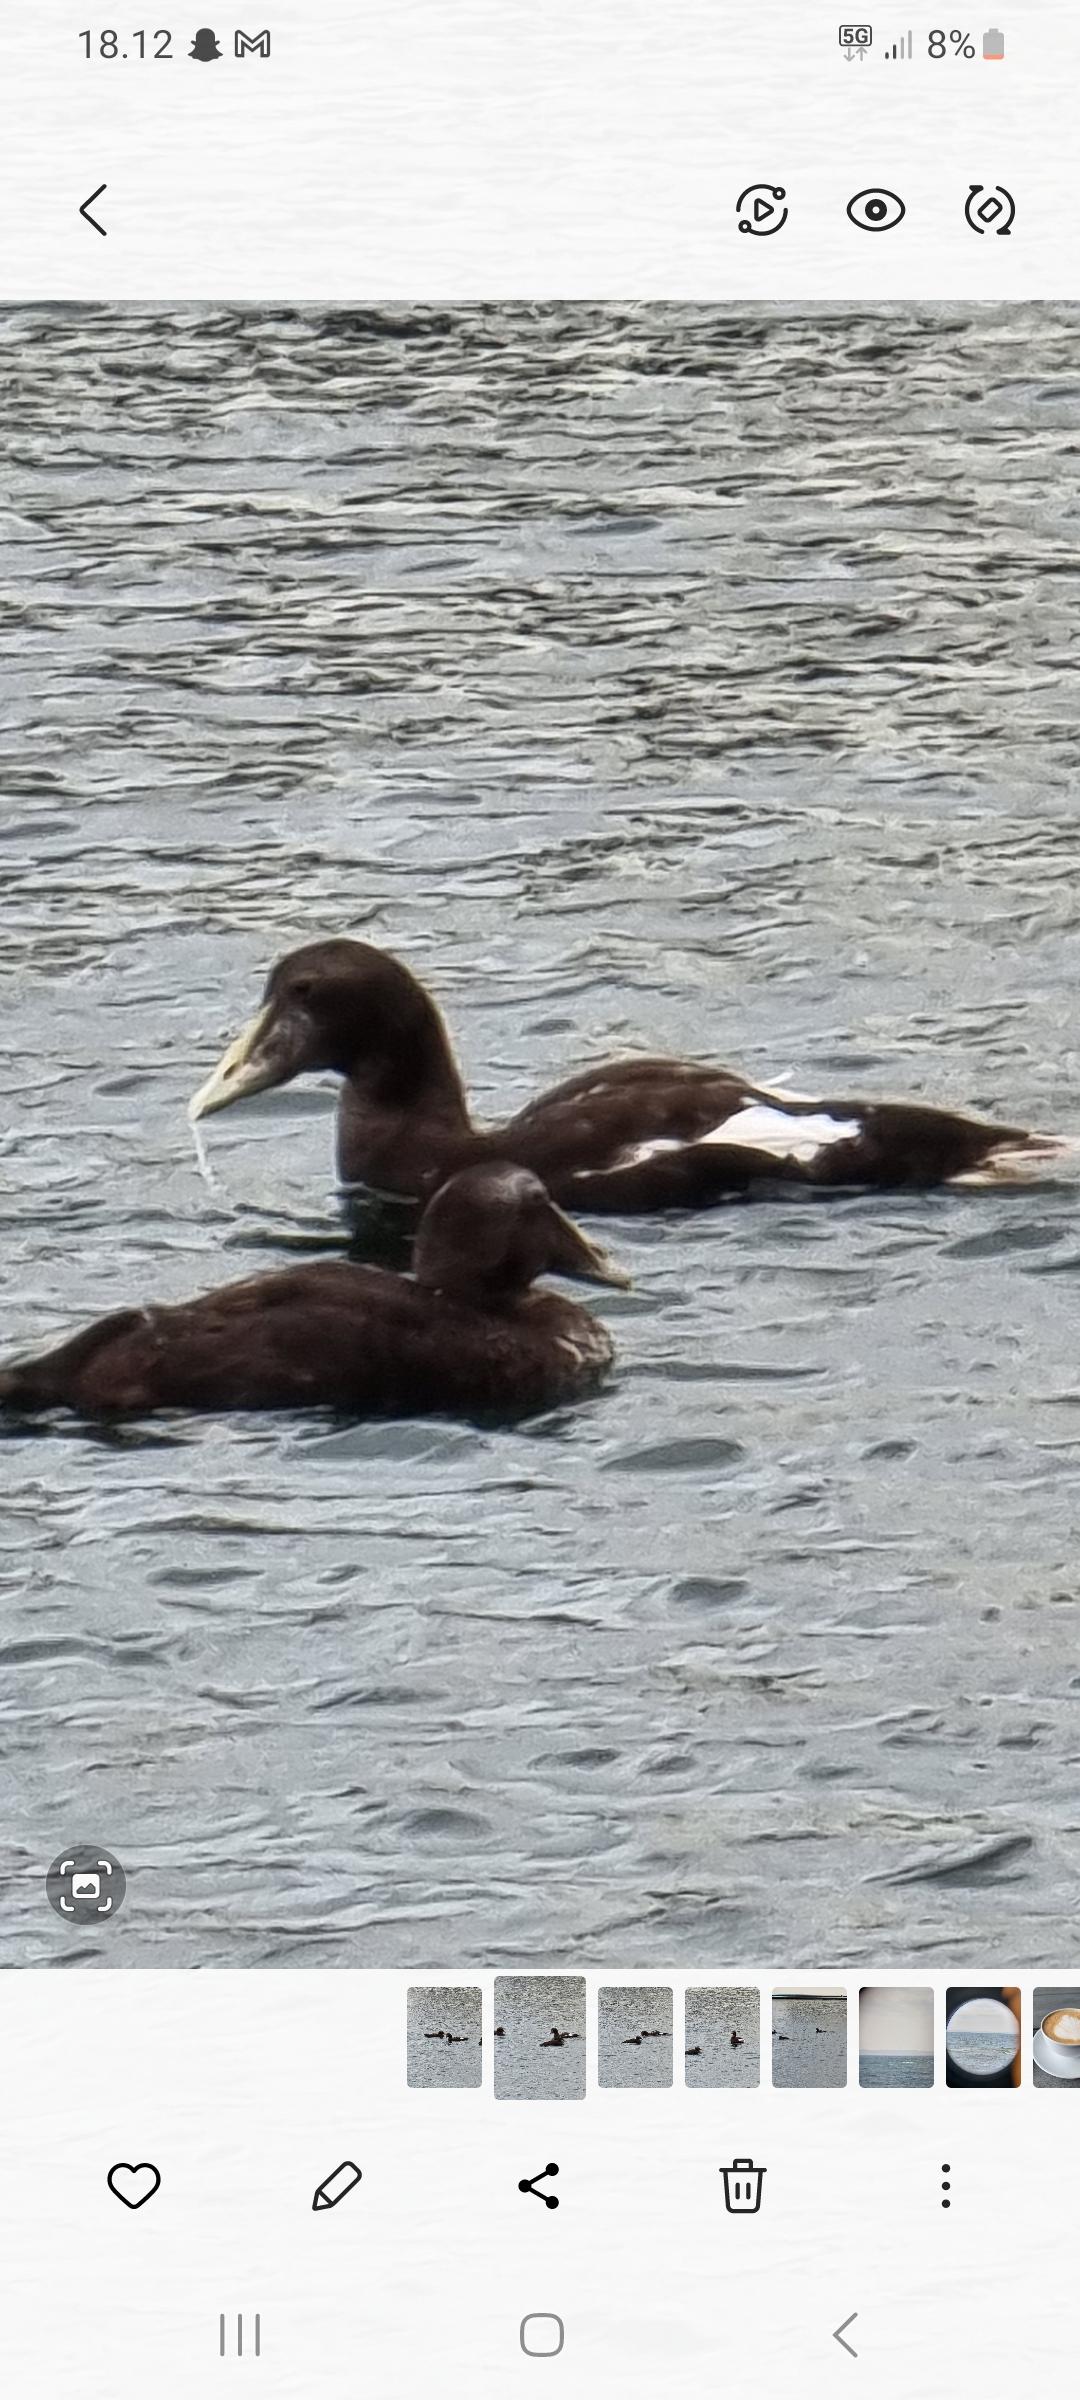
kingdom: Animalia
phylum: Chordata
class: Aves
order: Anseriformes
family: Anatidae
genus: Somateria
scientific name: Somateria mollissima
